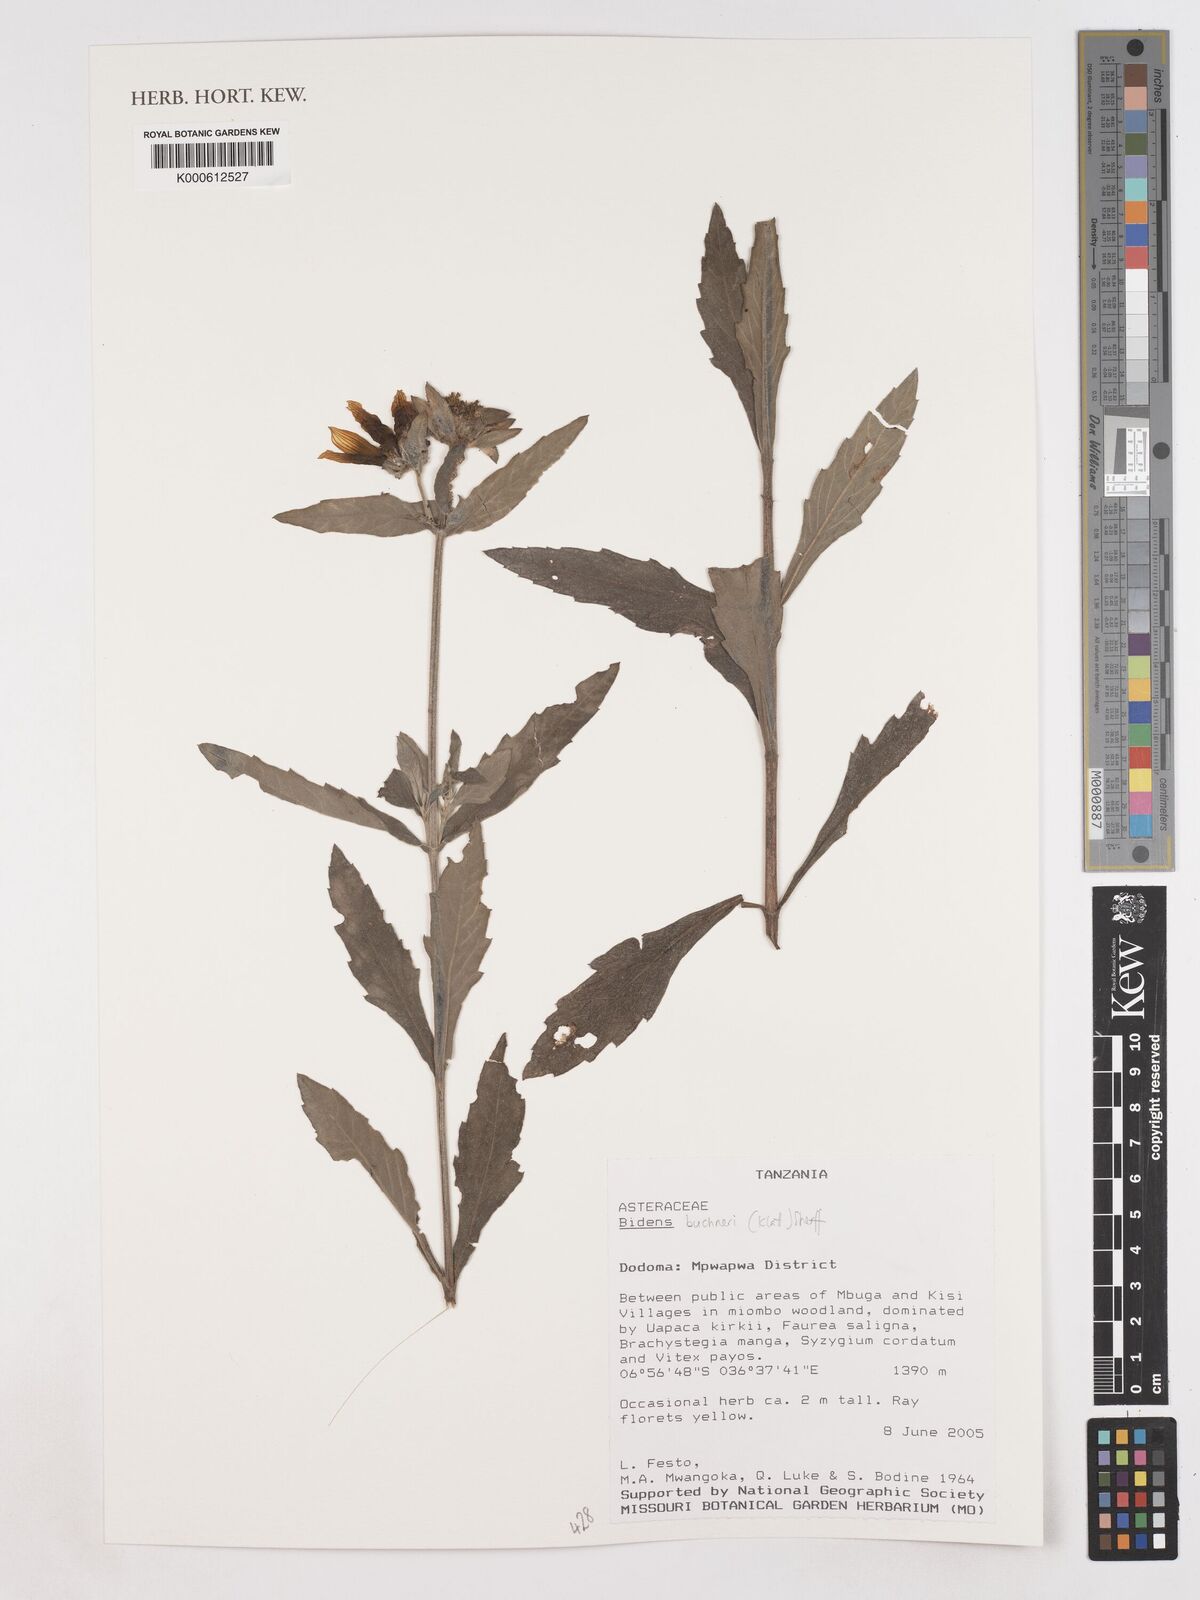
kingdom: Plantae
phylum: Tracheophyta
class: Magnoliopsida
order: Asterales
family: Asteraceae
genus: Bidens
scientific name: Bidens buchneri
